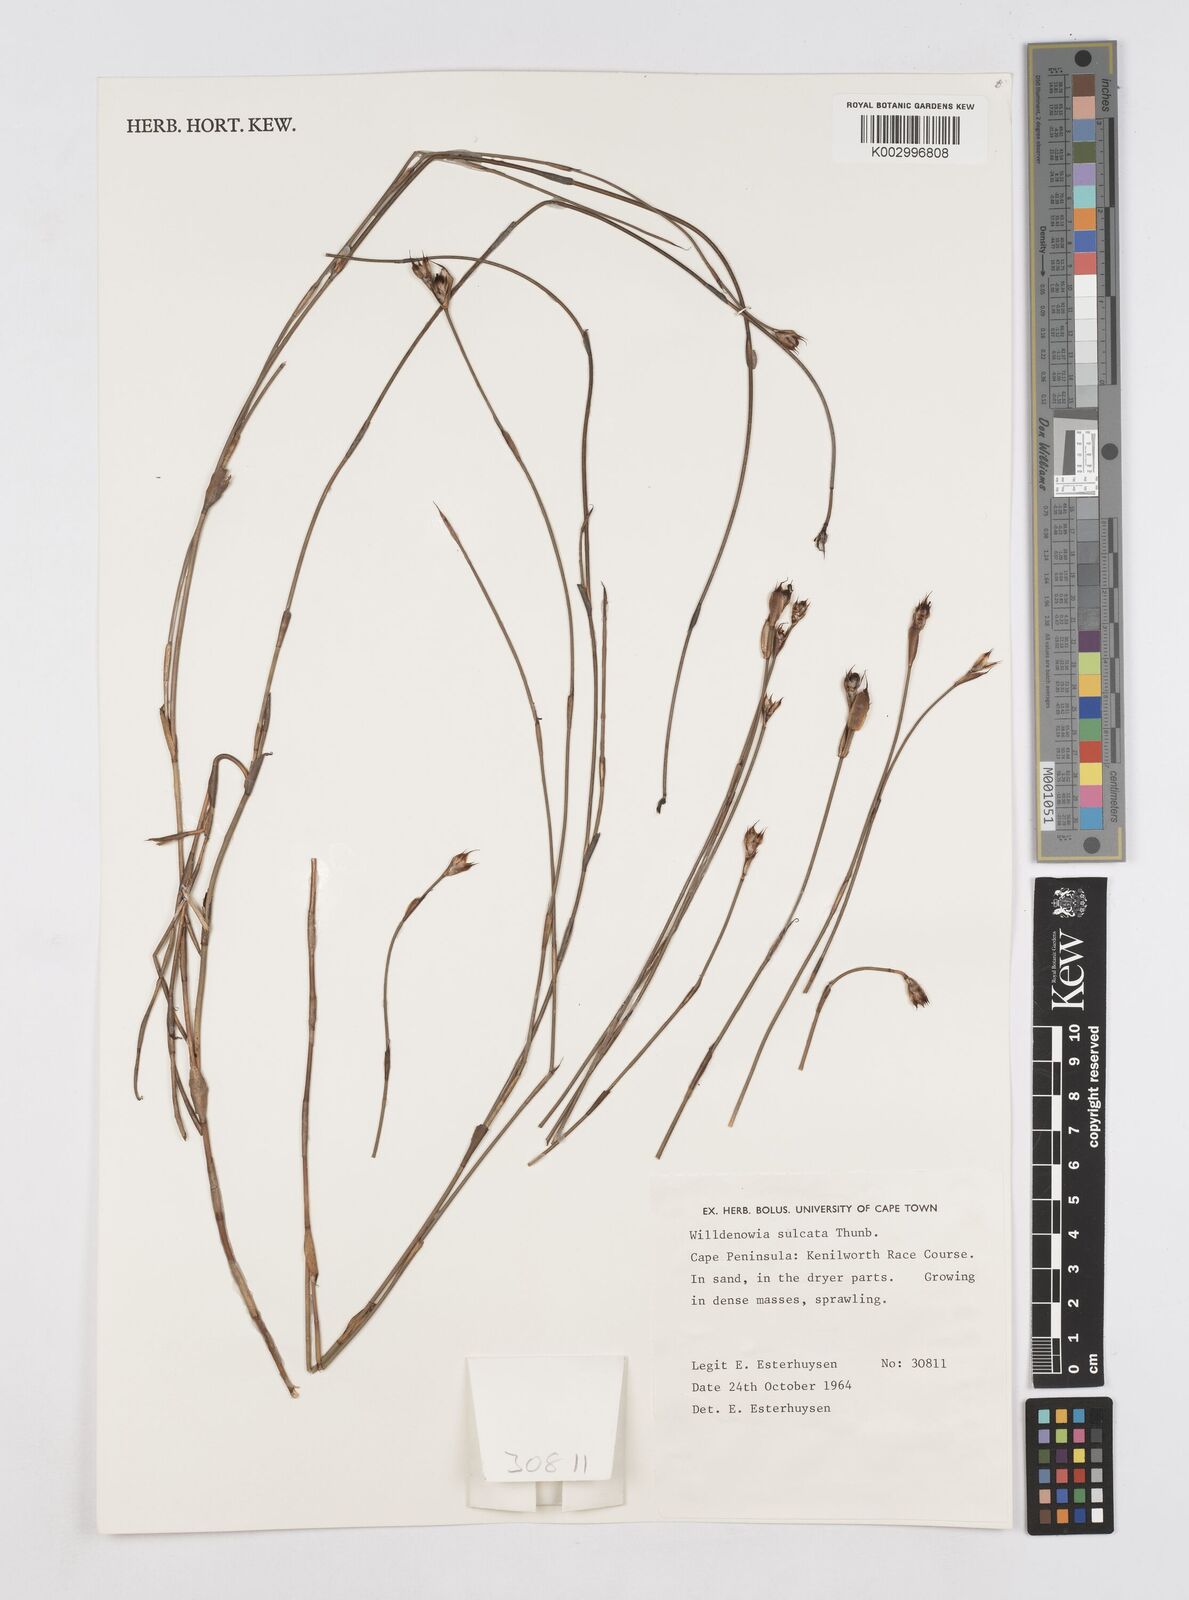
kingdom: Plantae
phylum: Tracheophyta
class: Liliopsida
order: Poales
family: Restionaceae
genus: Willdenowia
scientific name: Willdenowia sulcata
